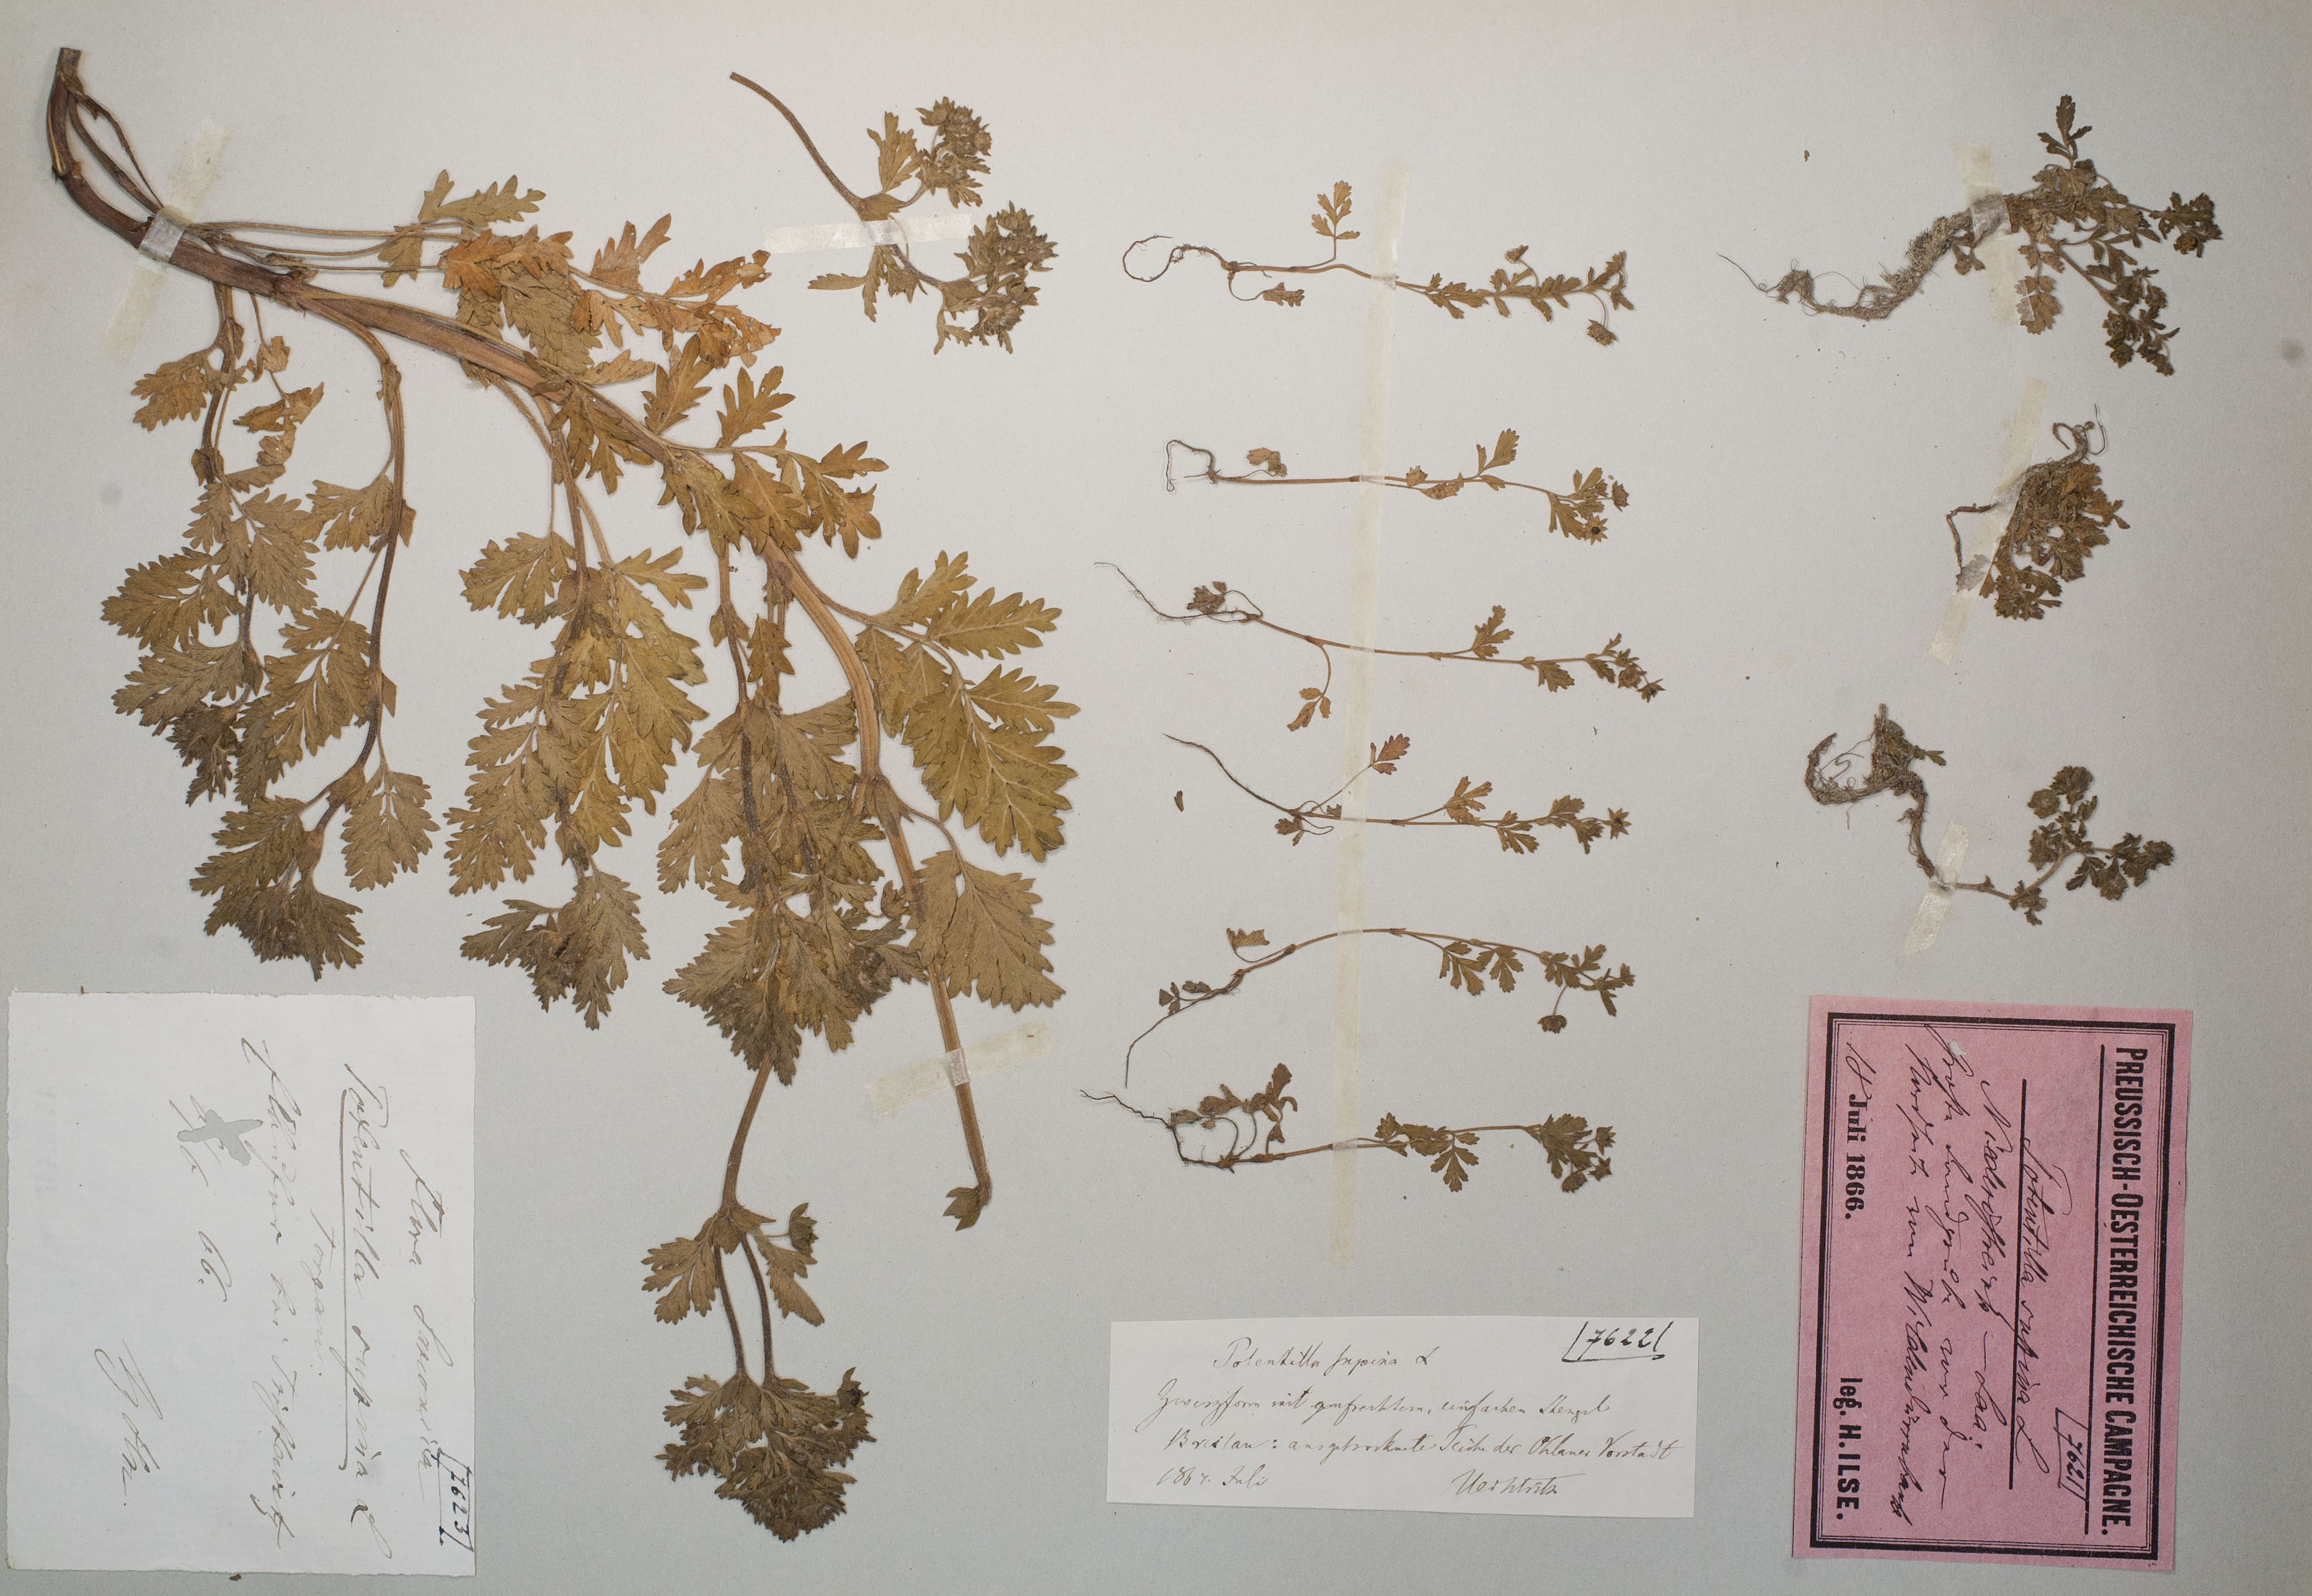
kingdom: Plantae
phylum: Tracheophyta
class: Magnoliopsida
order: Rosales
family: Rosaceae
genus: Potentilla
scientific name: Potentilla supina
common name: Prostrate cinquefoil
